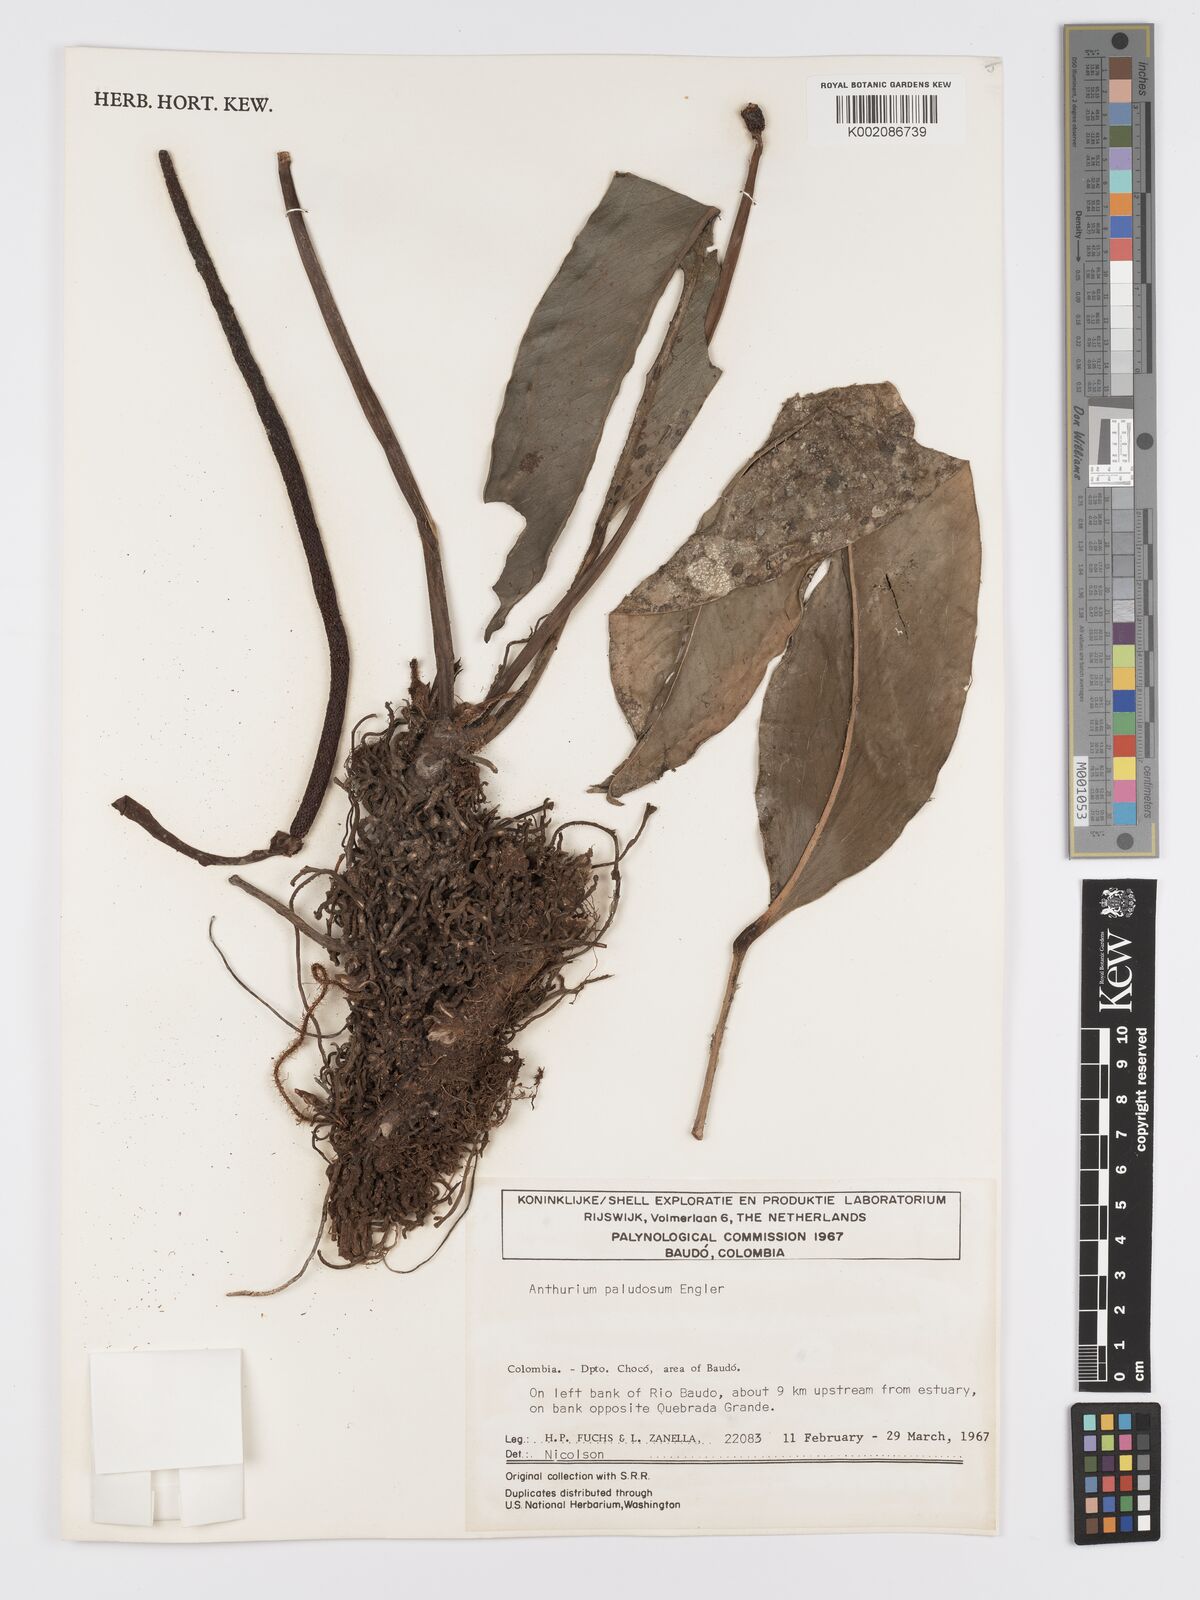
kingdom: Plantae
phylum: Tracheophyta
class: Liliopsida
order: Alismatales
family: Araceae
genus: Anthurium
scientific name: Anthurium paludosum
